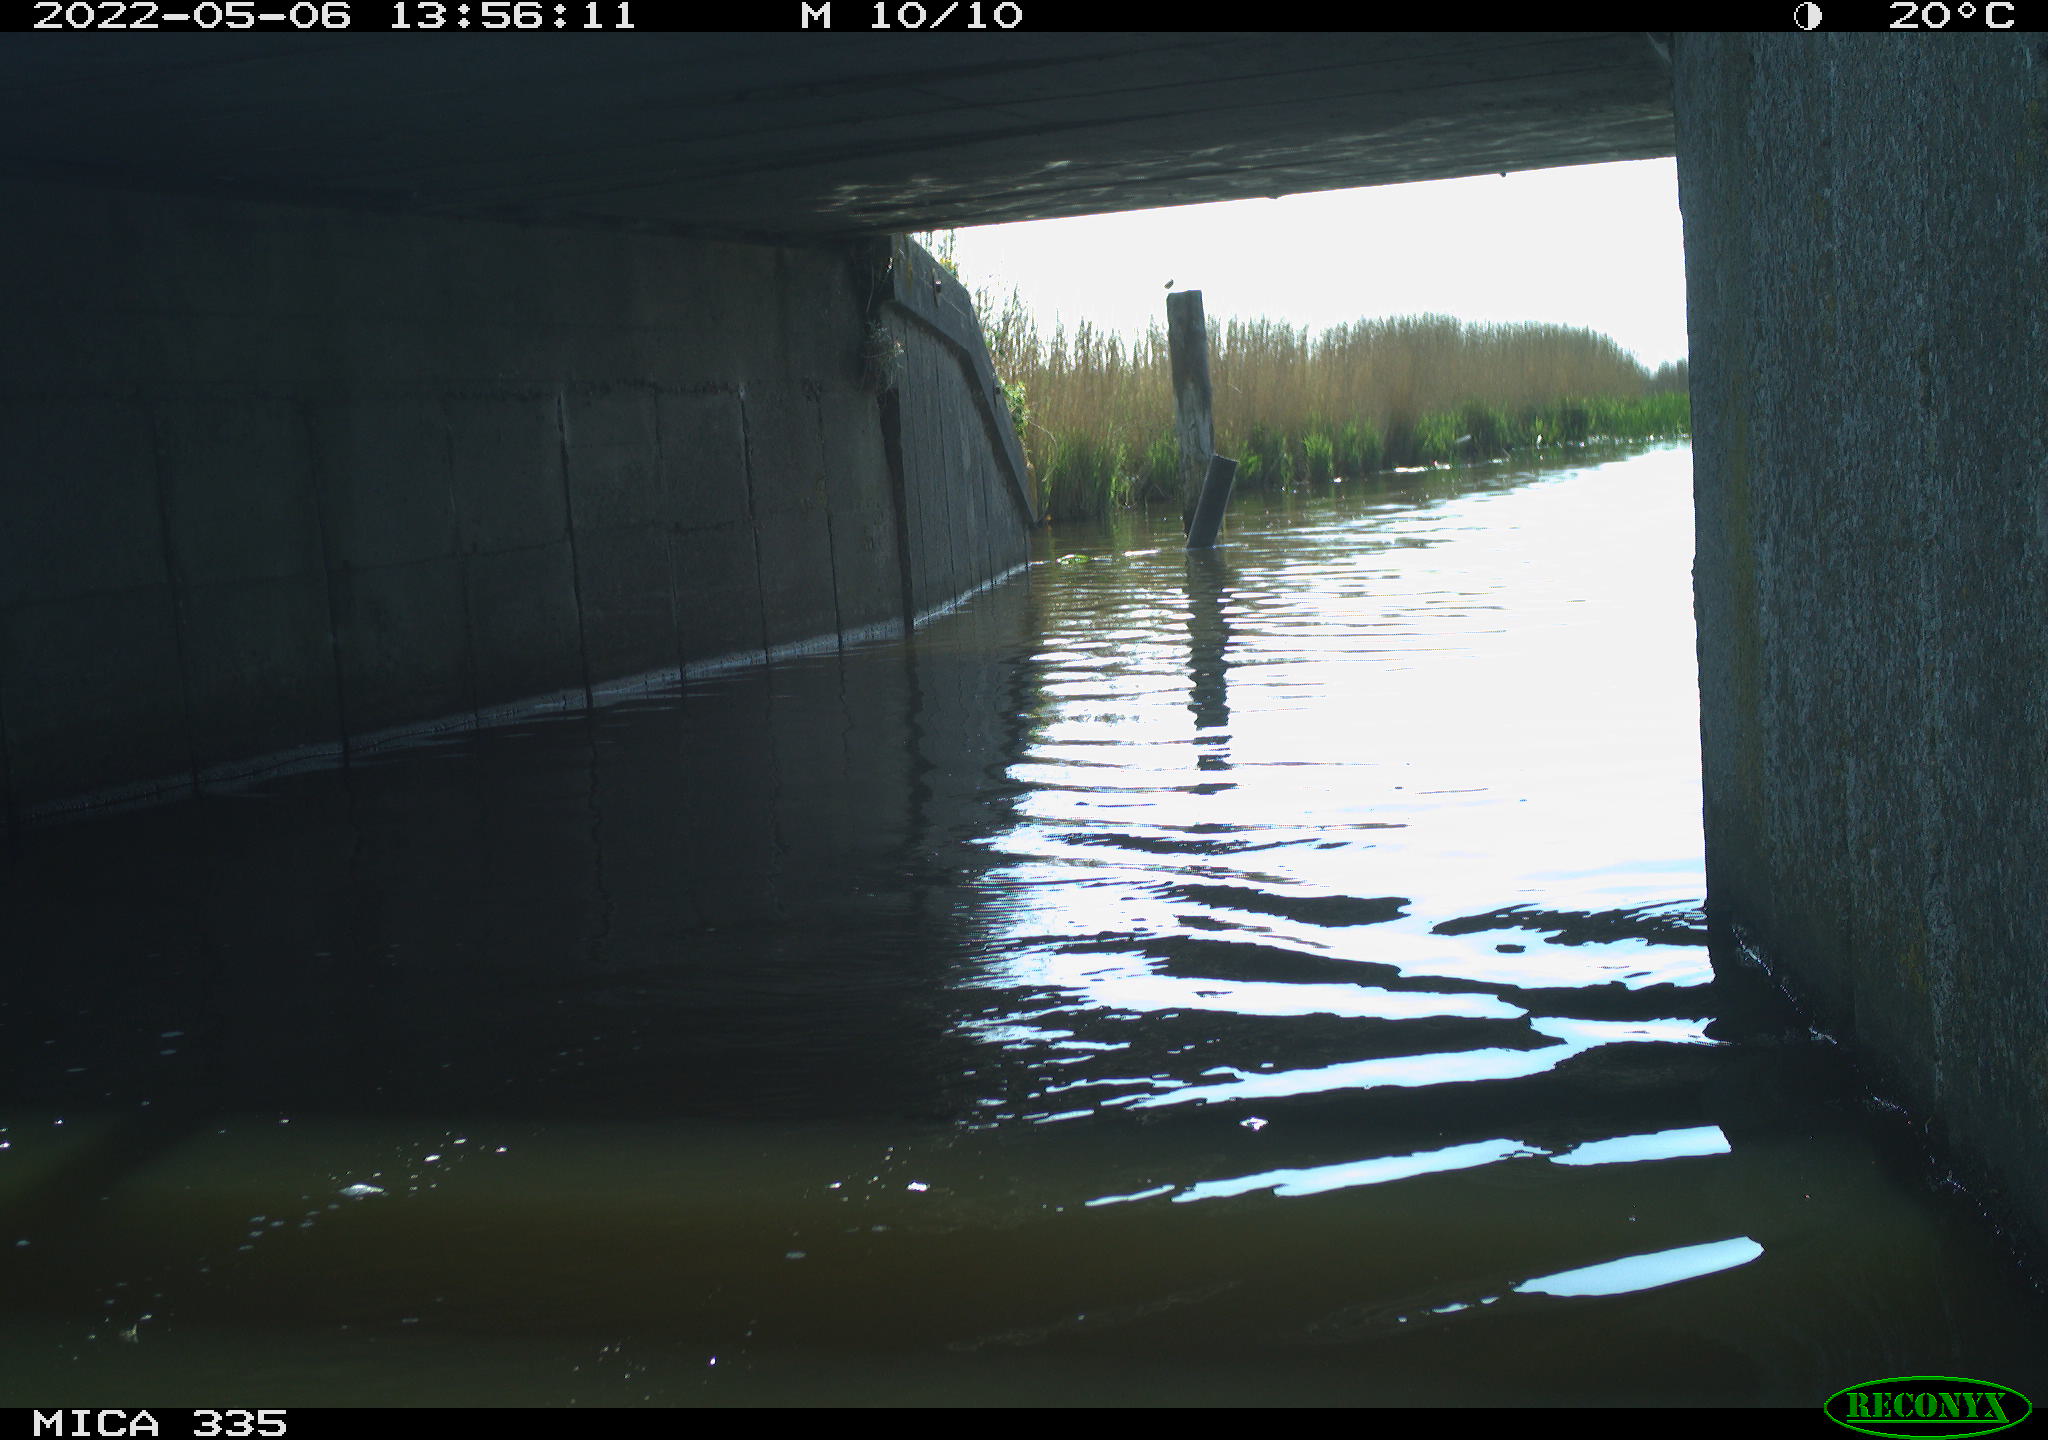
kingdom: Animalia
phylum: Chordata
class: Aves
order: Anseriformes
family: Anatidae
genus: Anas
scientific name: Anas platyrhynchos
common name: Mallard
